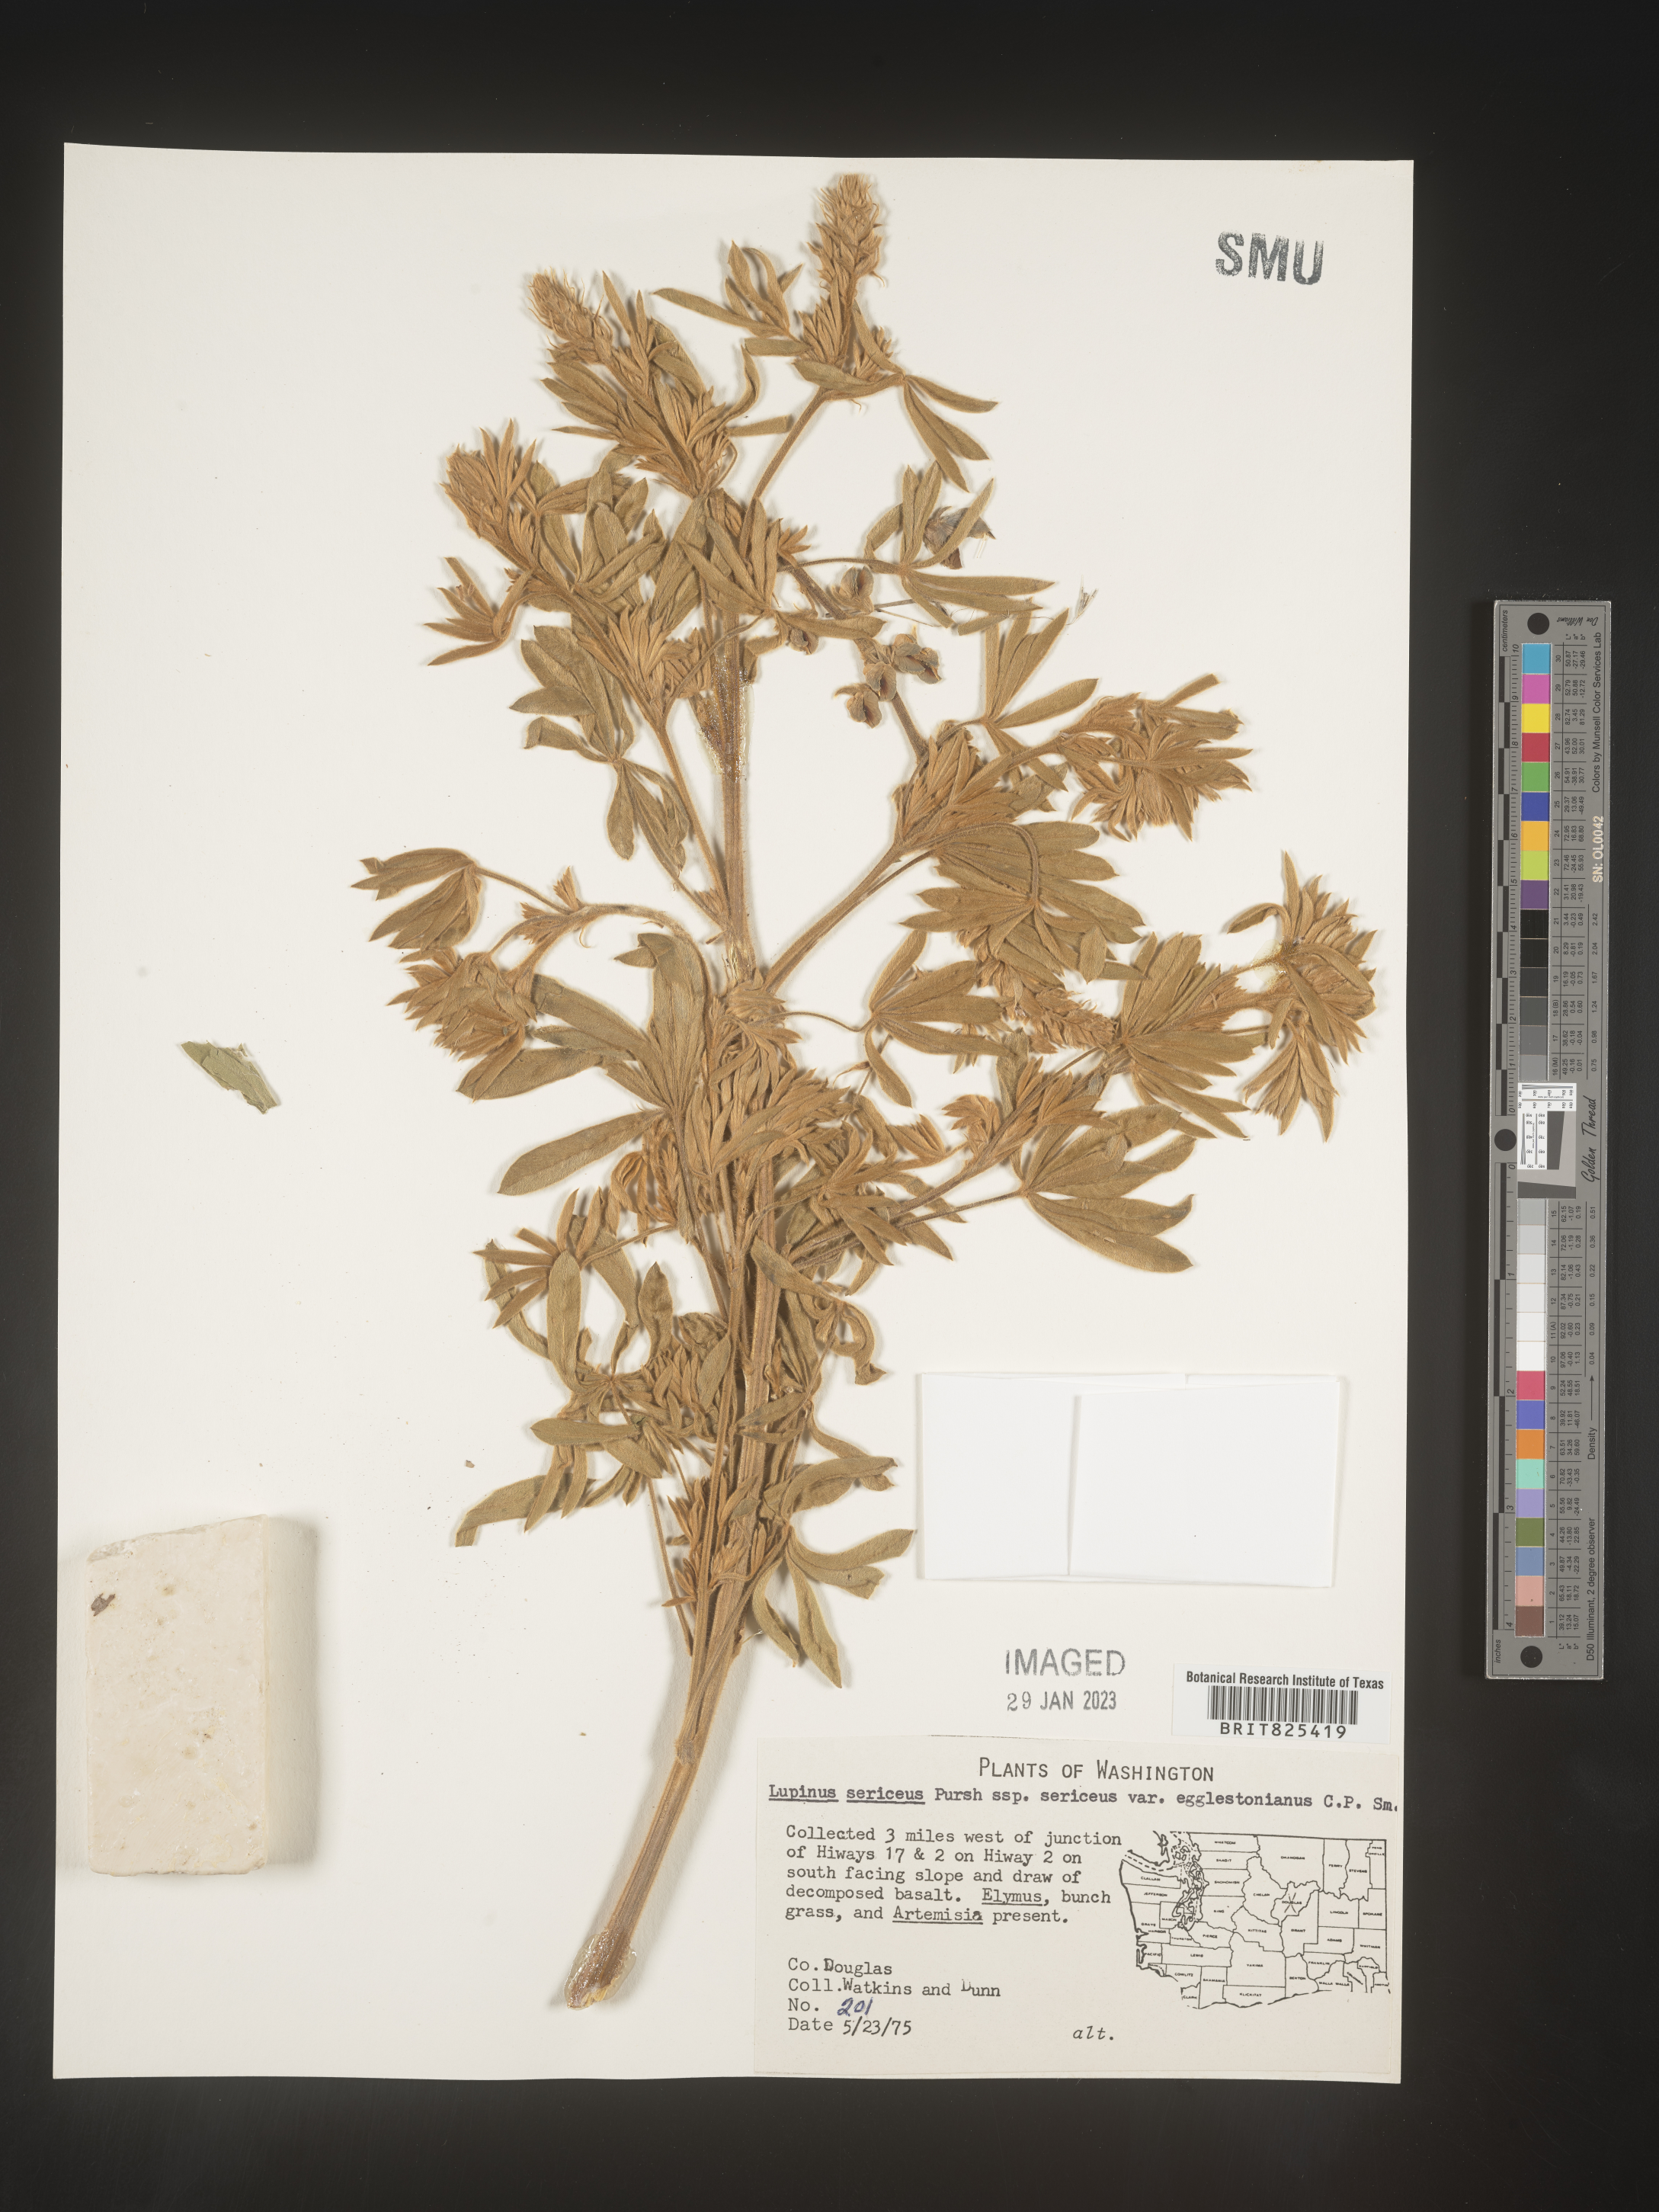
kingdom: Plantae
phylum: Tracheophyta
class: Magnoliopsida
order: Fabales
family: Fabaceae
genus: Lupinus
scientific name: Lupinus sericeus
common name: Silky lupine
